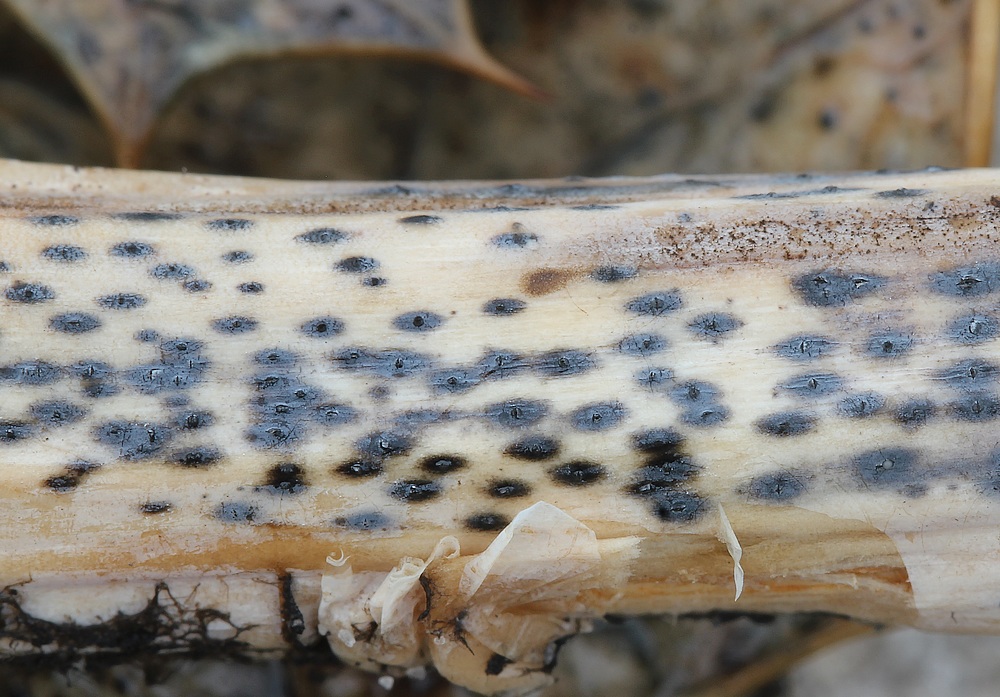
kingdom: Fungi
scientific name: Fungi
